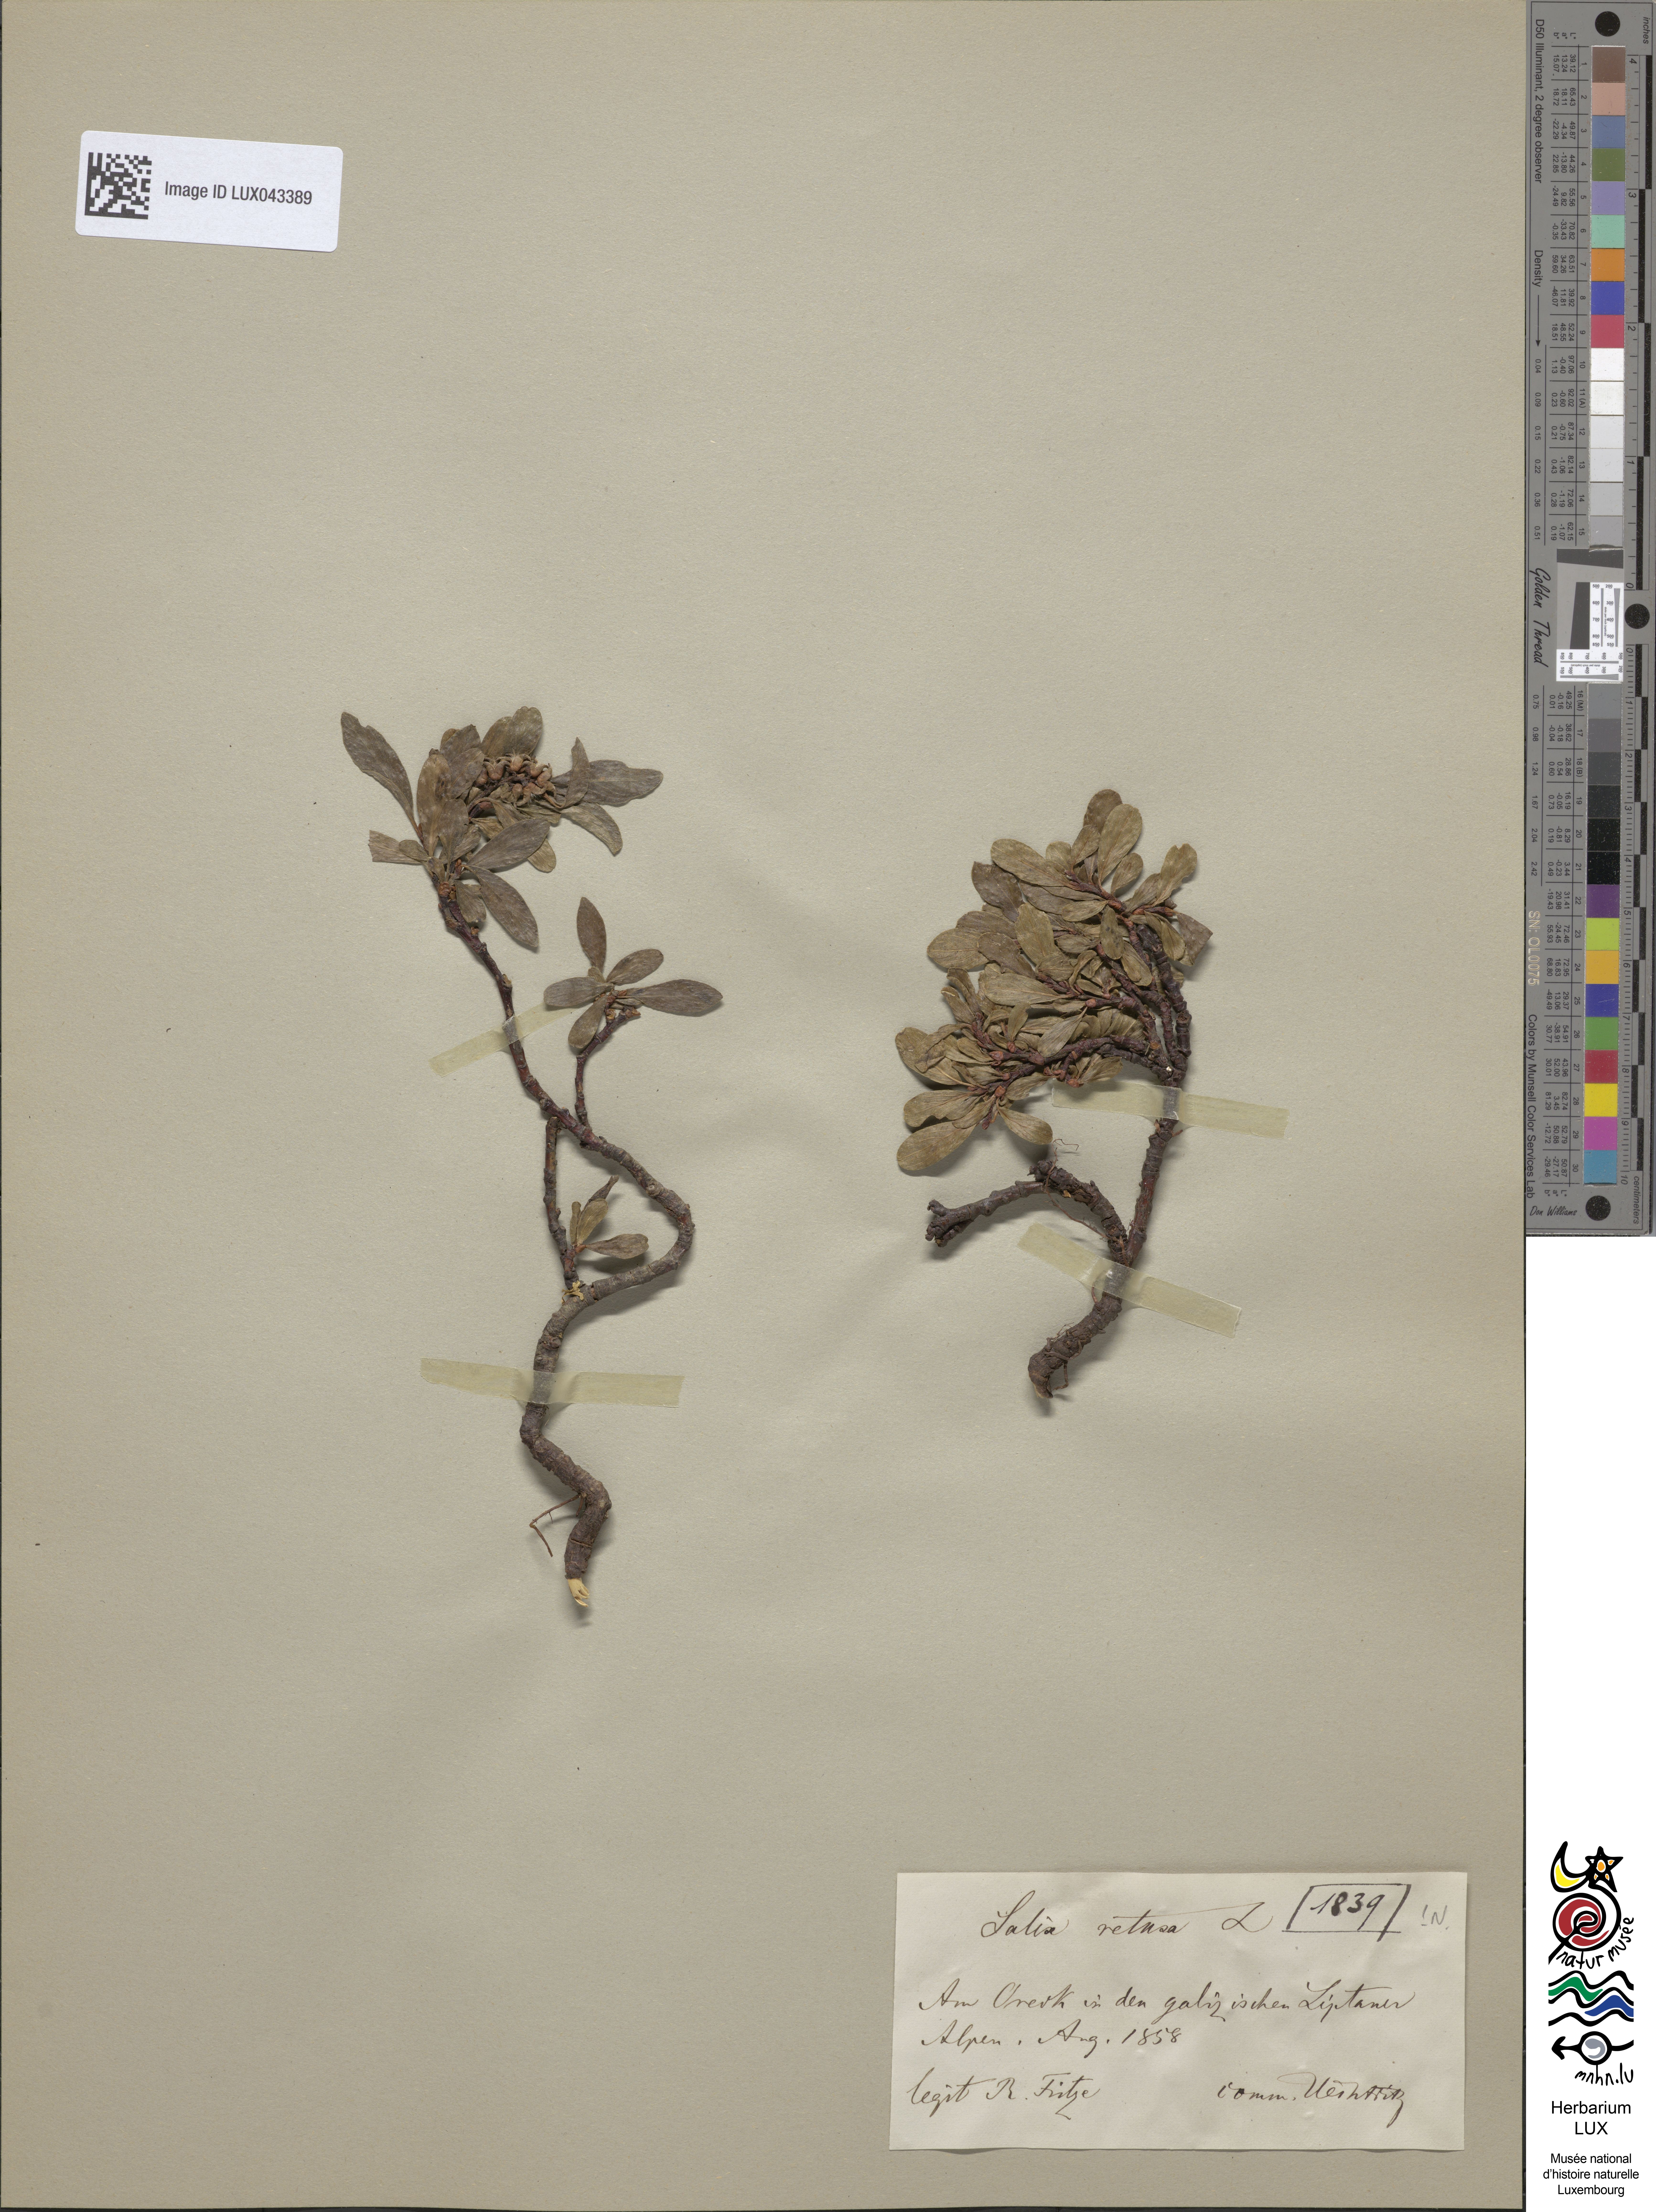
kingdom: Plantae
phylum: Tracheophyta
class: Magnoliopsida
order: Malpighiales
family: Salicaceae
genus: Salix
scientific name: Salix retusa
